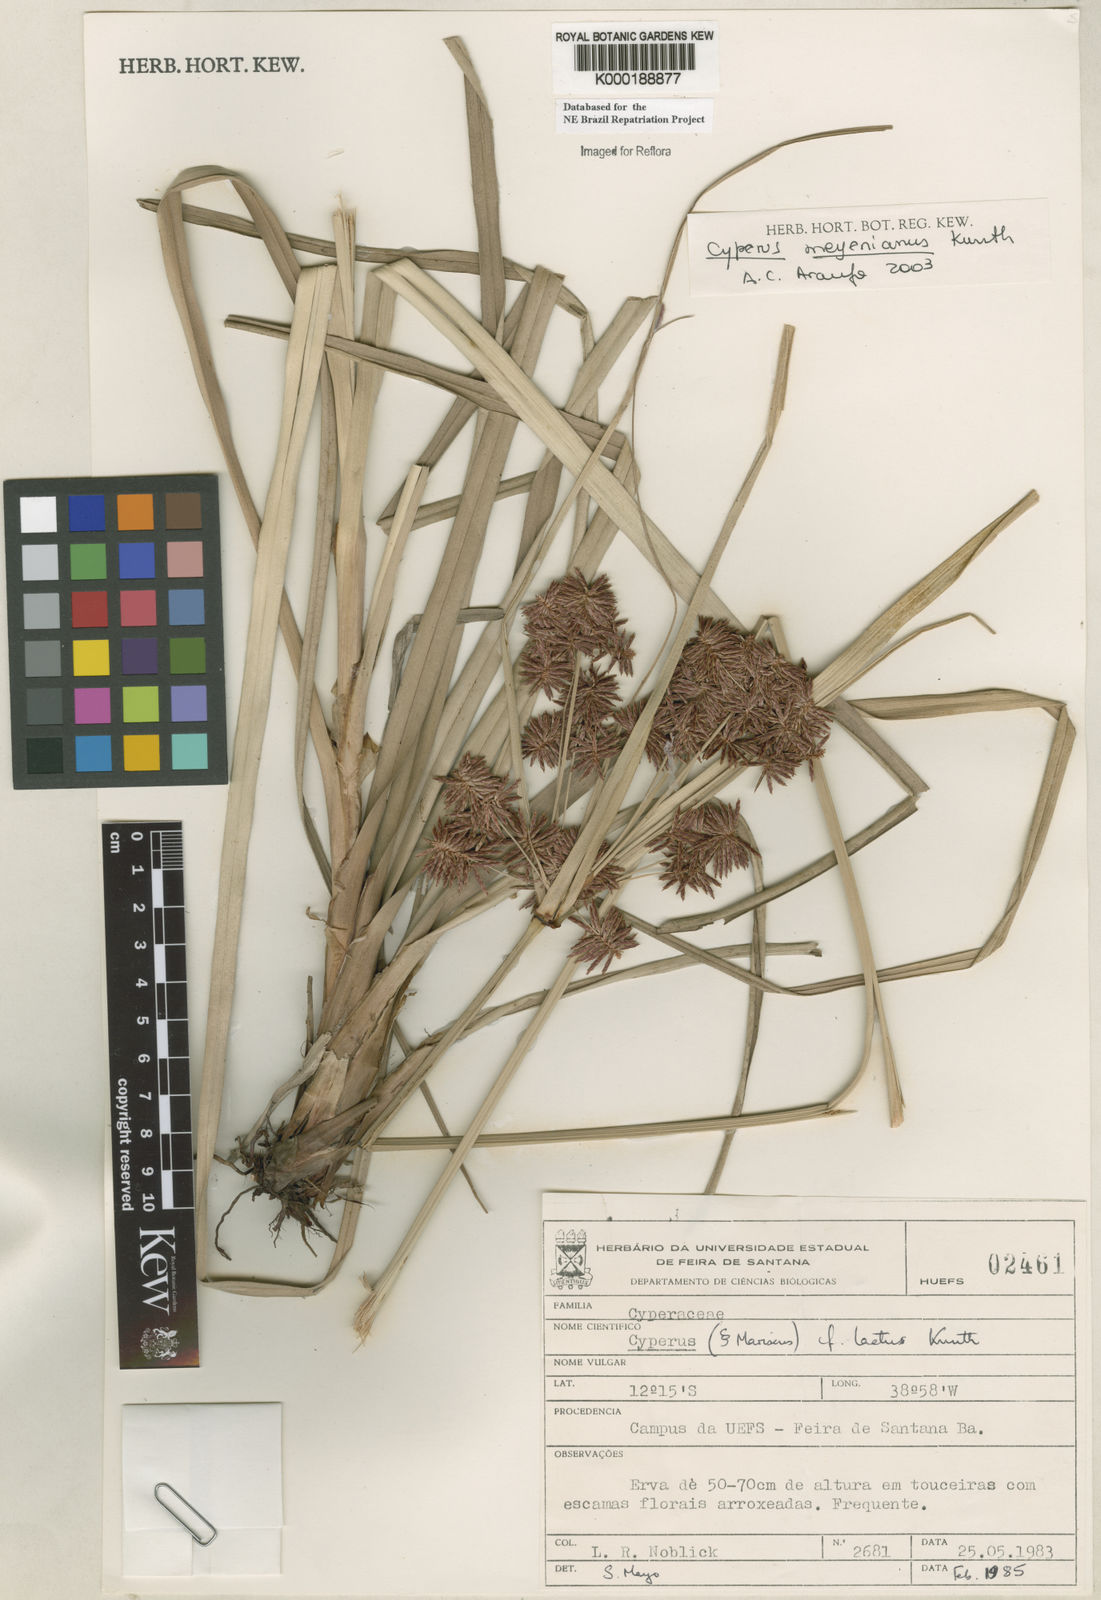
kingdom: Plantae
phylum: Tracheophyta
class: Liliopsida
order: Poales
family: Cyperaceae
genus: Cyperus
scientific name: Cyperus meyerianus
